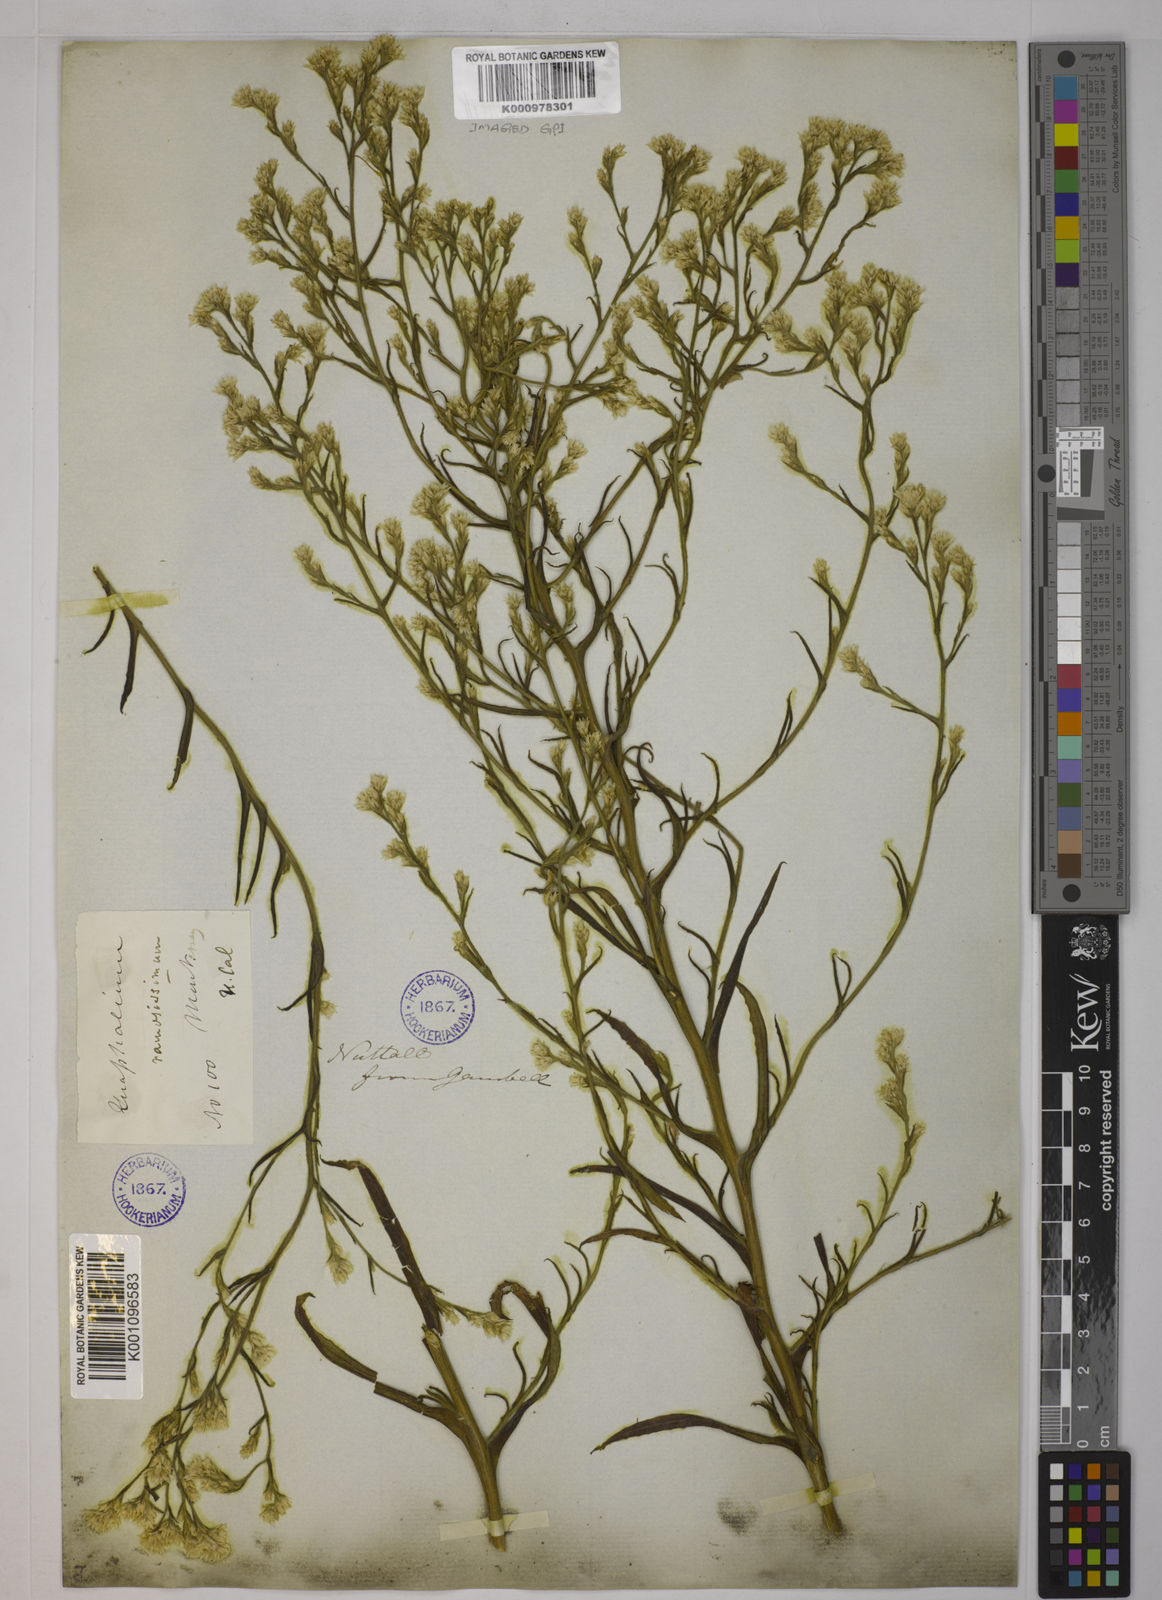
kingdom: Plantae
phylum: Tracheophyta
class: Magnoliopsida
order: Asterales
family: Asteraceae
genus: Pseudognaphalium
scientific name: Pseudognaphalium ramosissimum
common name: Pink rabbit-tobacco
